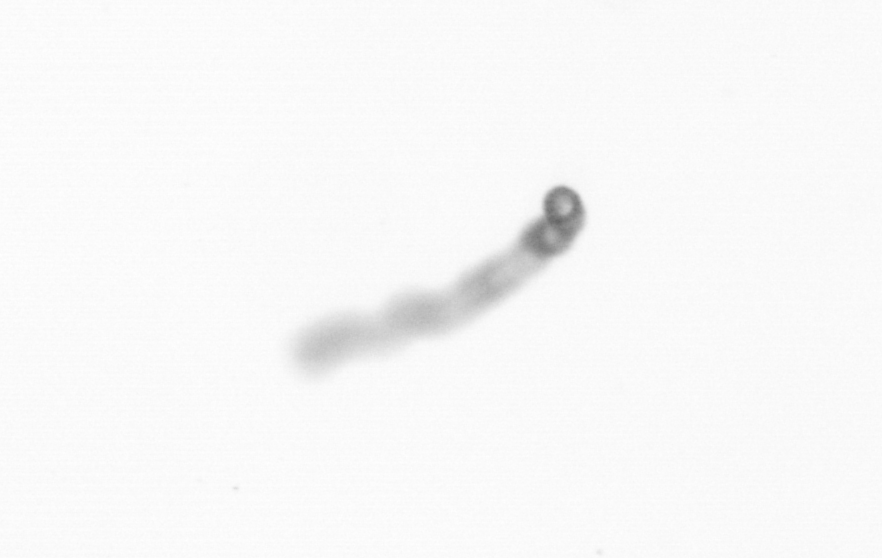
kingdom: Chromista
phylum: Ochrophyta
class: Bacillariophyceae
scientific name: Bacillariophyceae
